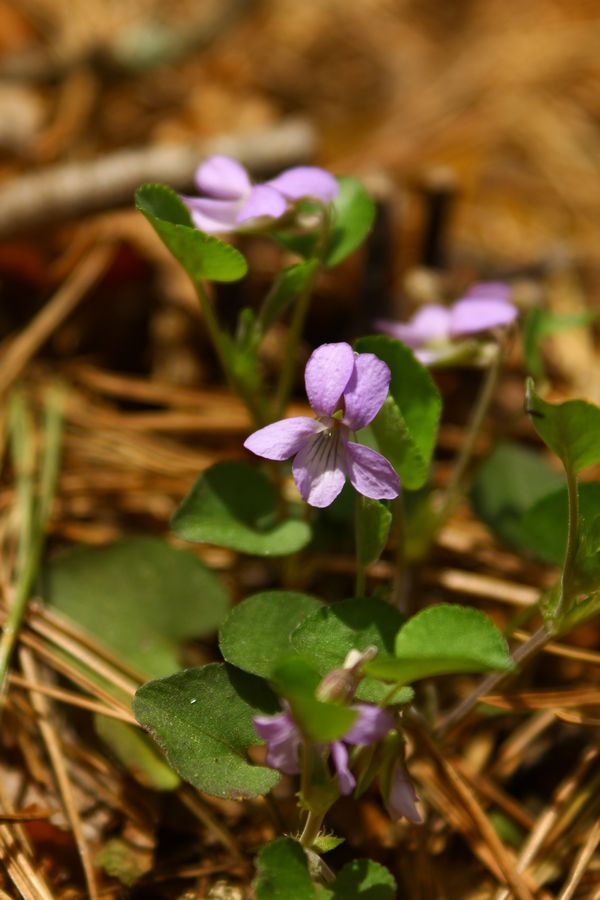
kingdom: Plantae
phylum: Tracheophyta
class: Magnoliopsida
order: Malpighiales
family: Violaceae
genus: Viola
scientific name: Viola collina
